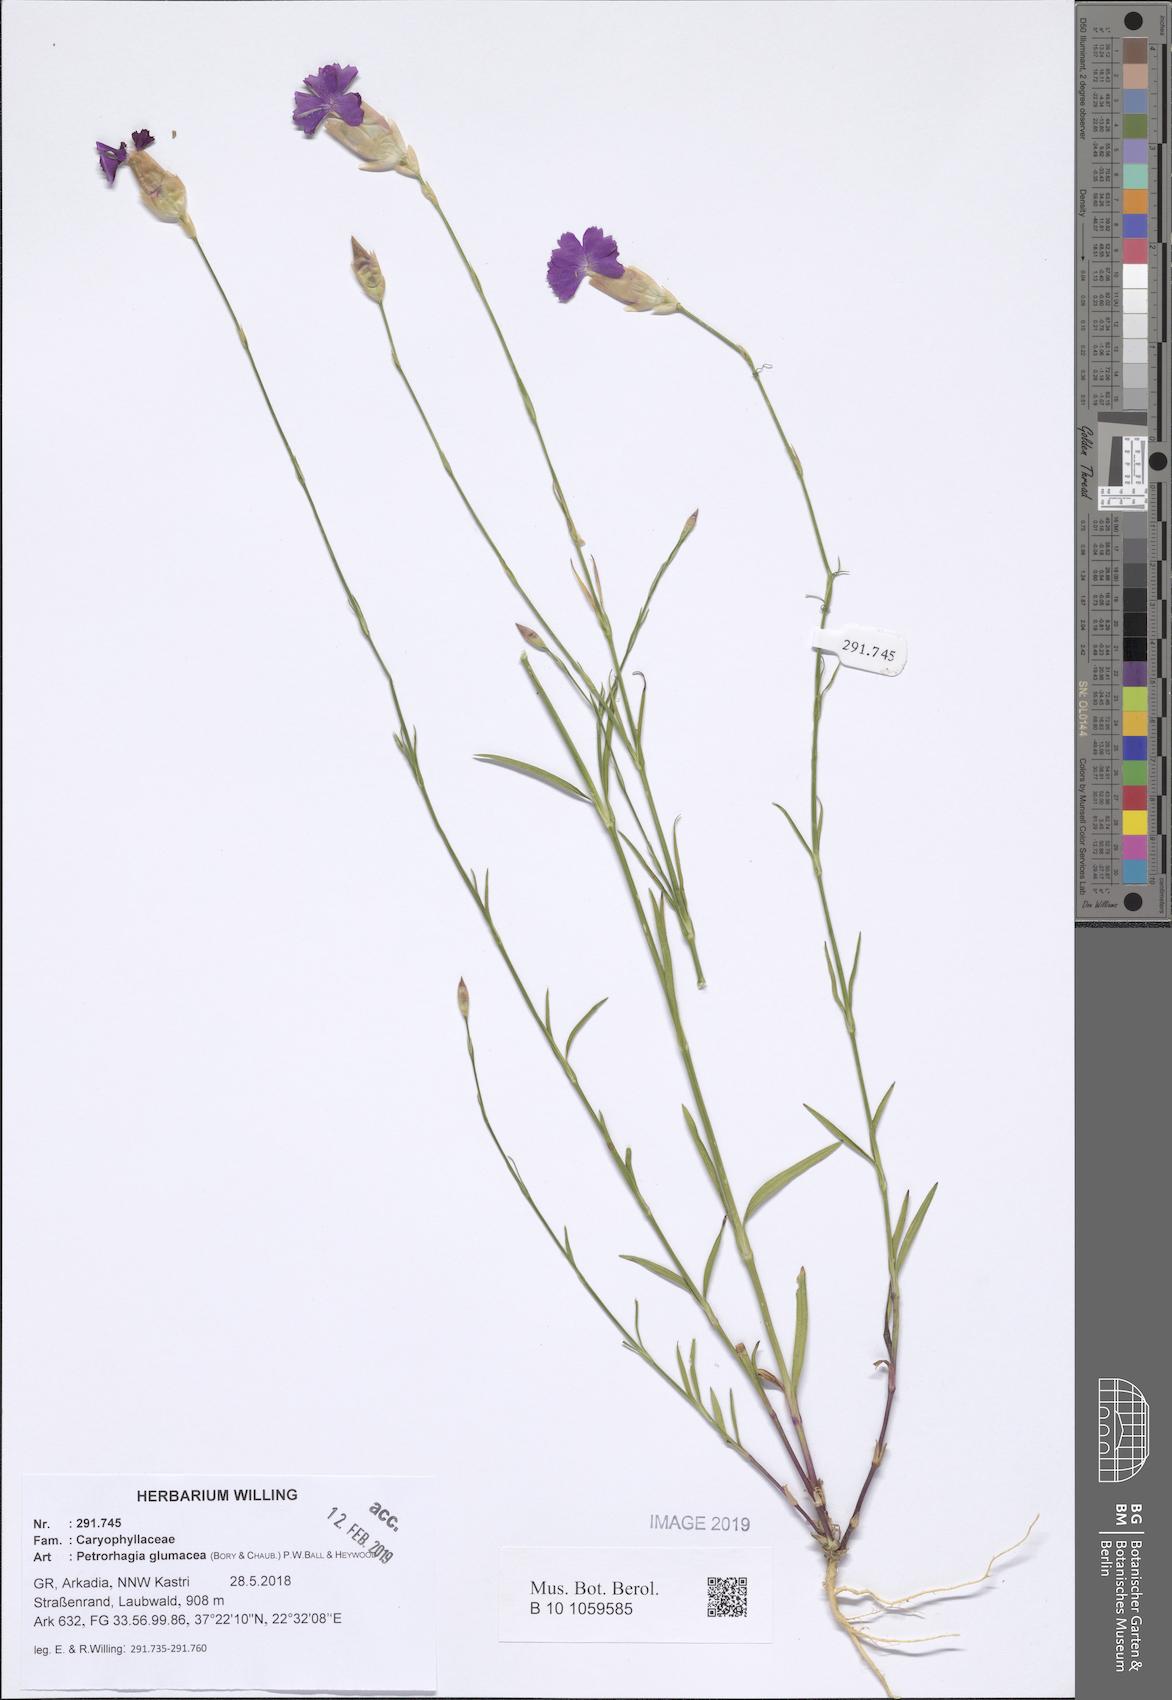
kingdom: Plantae
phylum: Tracheophyta
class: Magnoliopsida
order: Caryophyllales
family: Caryophyllaceae
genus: Petrorhagia
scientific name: Petrorhagia glumacea
